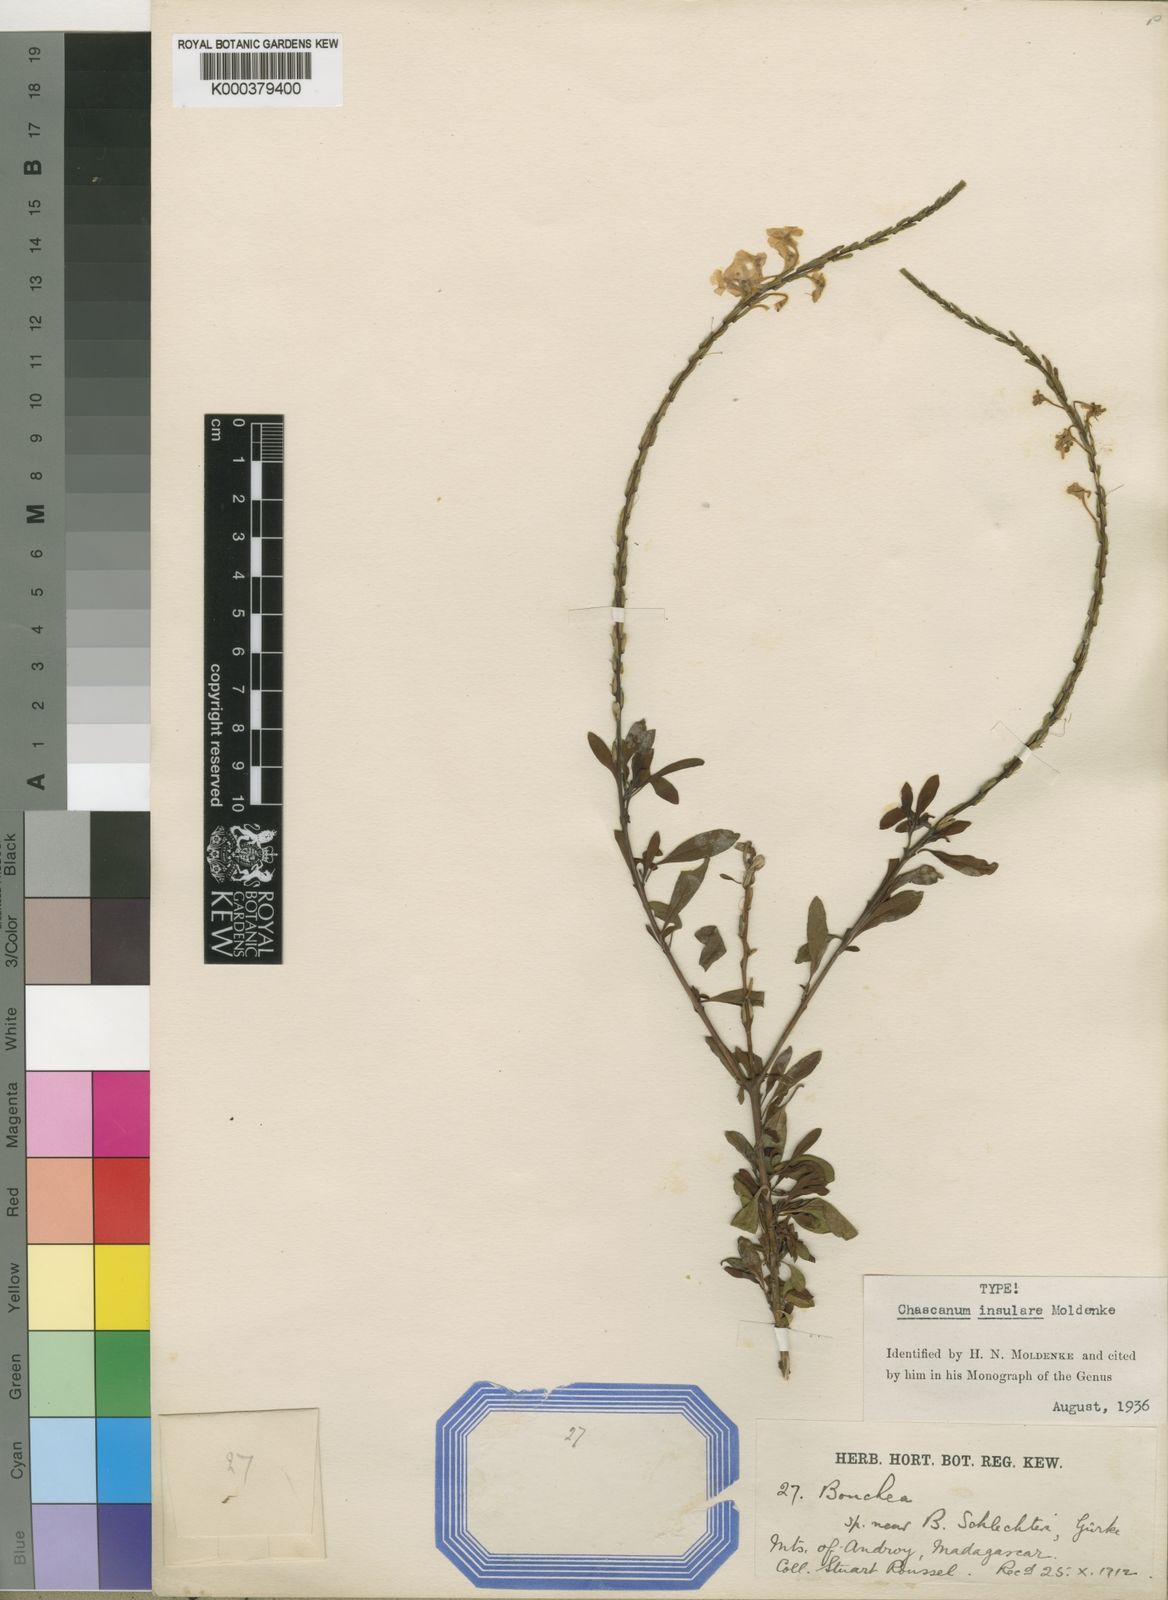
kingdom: Plantae
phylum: Tracheophyta
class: Magnoliopsida
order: Lamiales
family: Verbenaceae
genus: Chascanum
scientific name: Chascanum insulare
